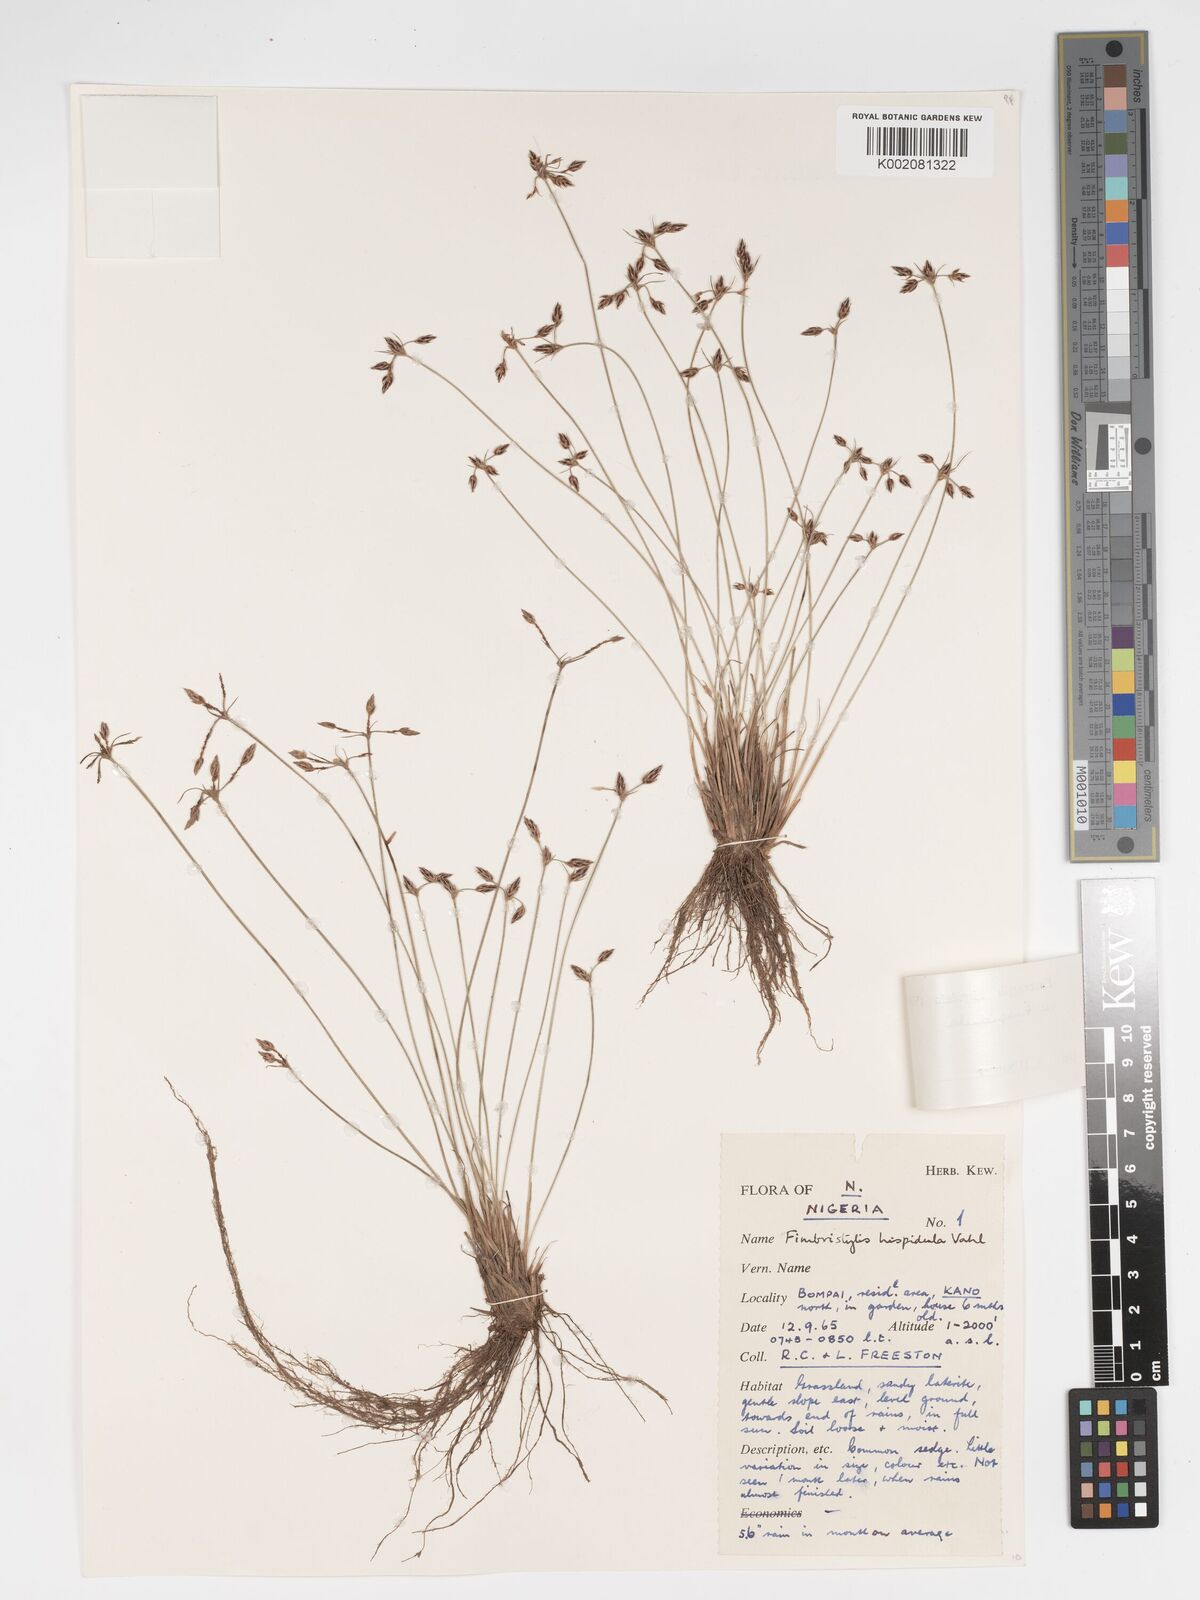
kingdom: Plantae
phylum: Tracheophyta
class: Liliopsida
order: Poales
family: Cyperaceae
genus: Bulbostylis
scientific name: Bulbostylis hispidula
